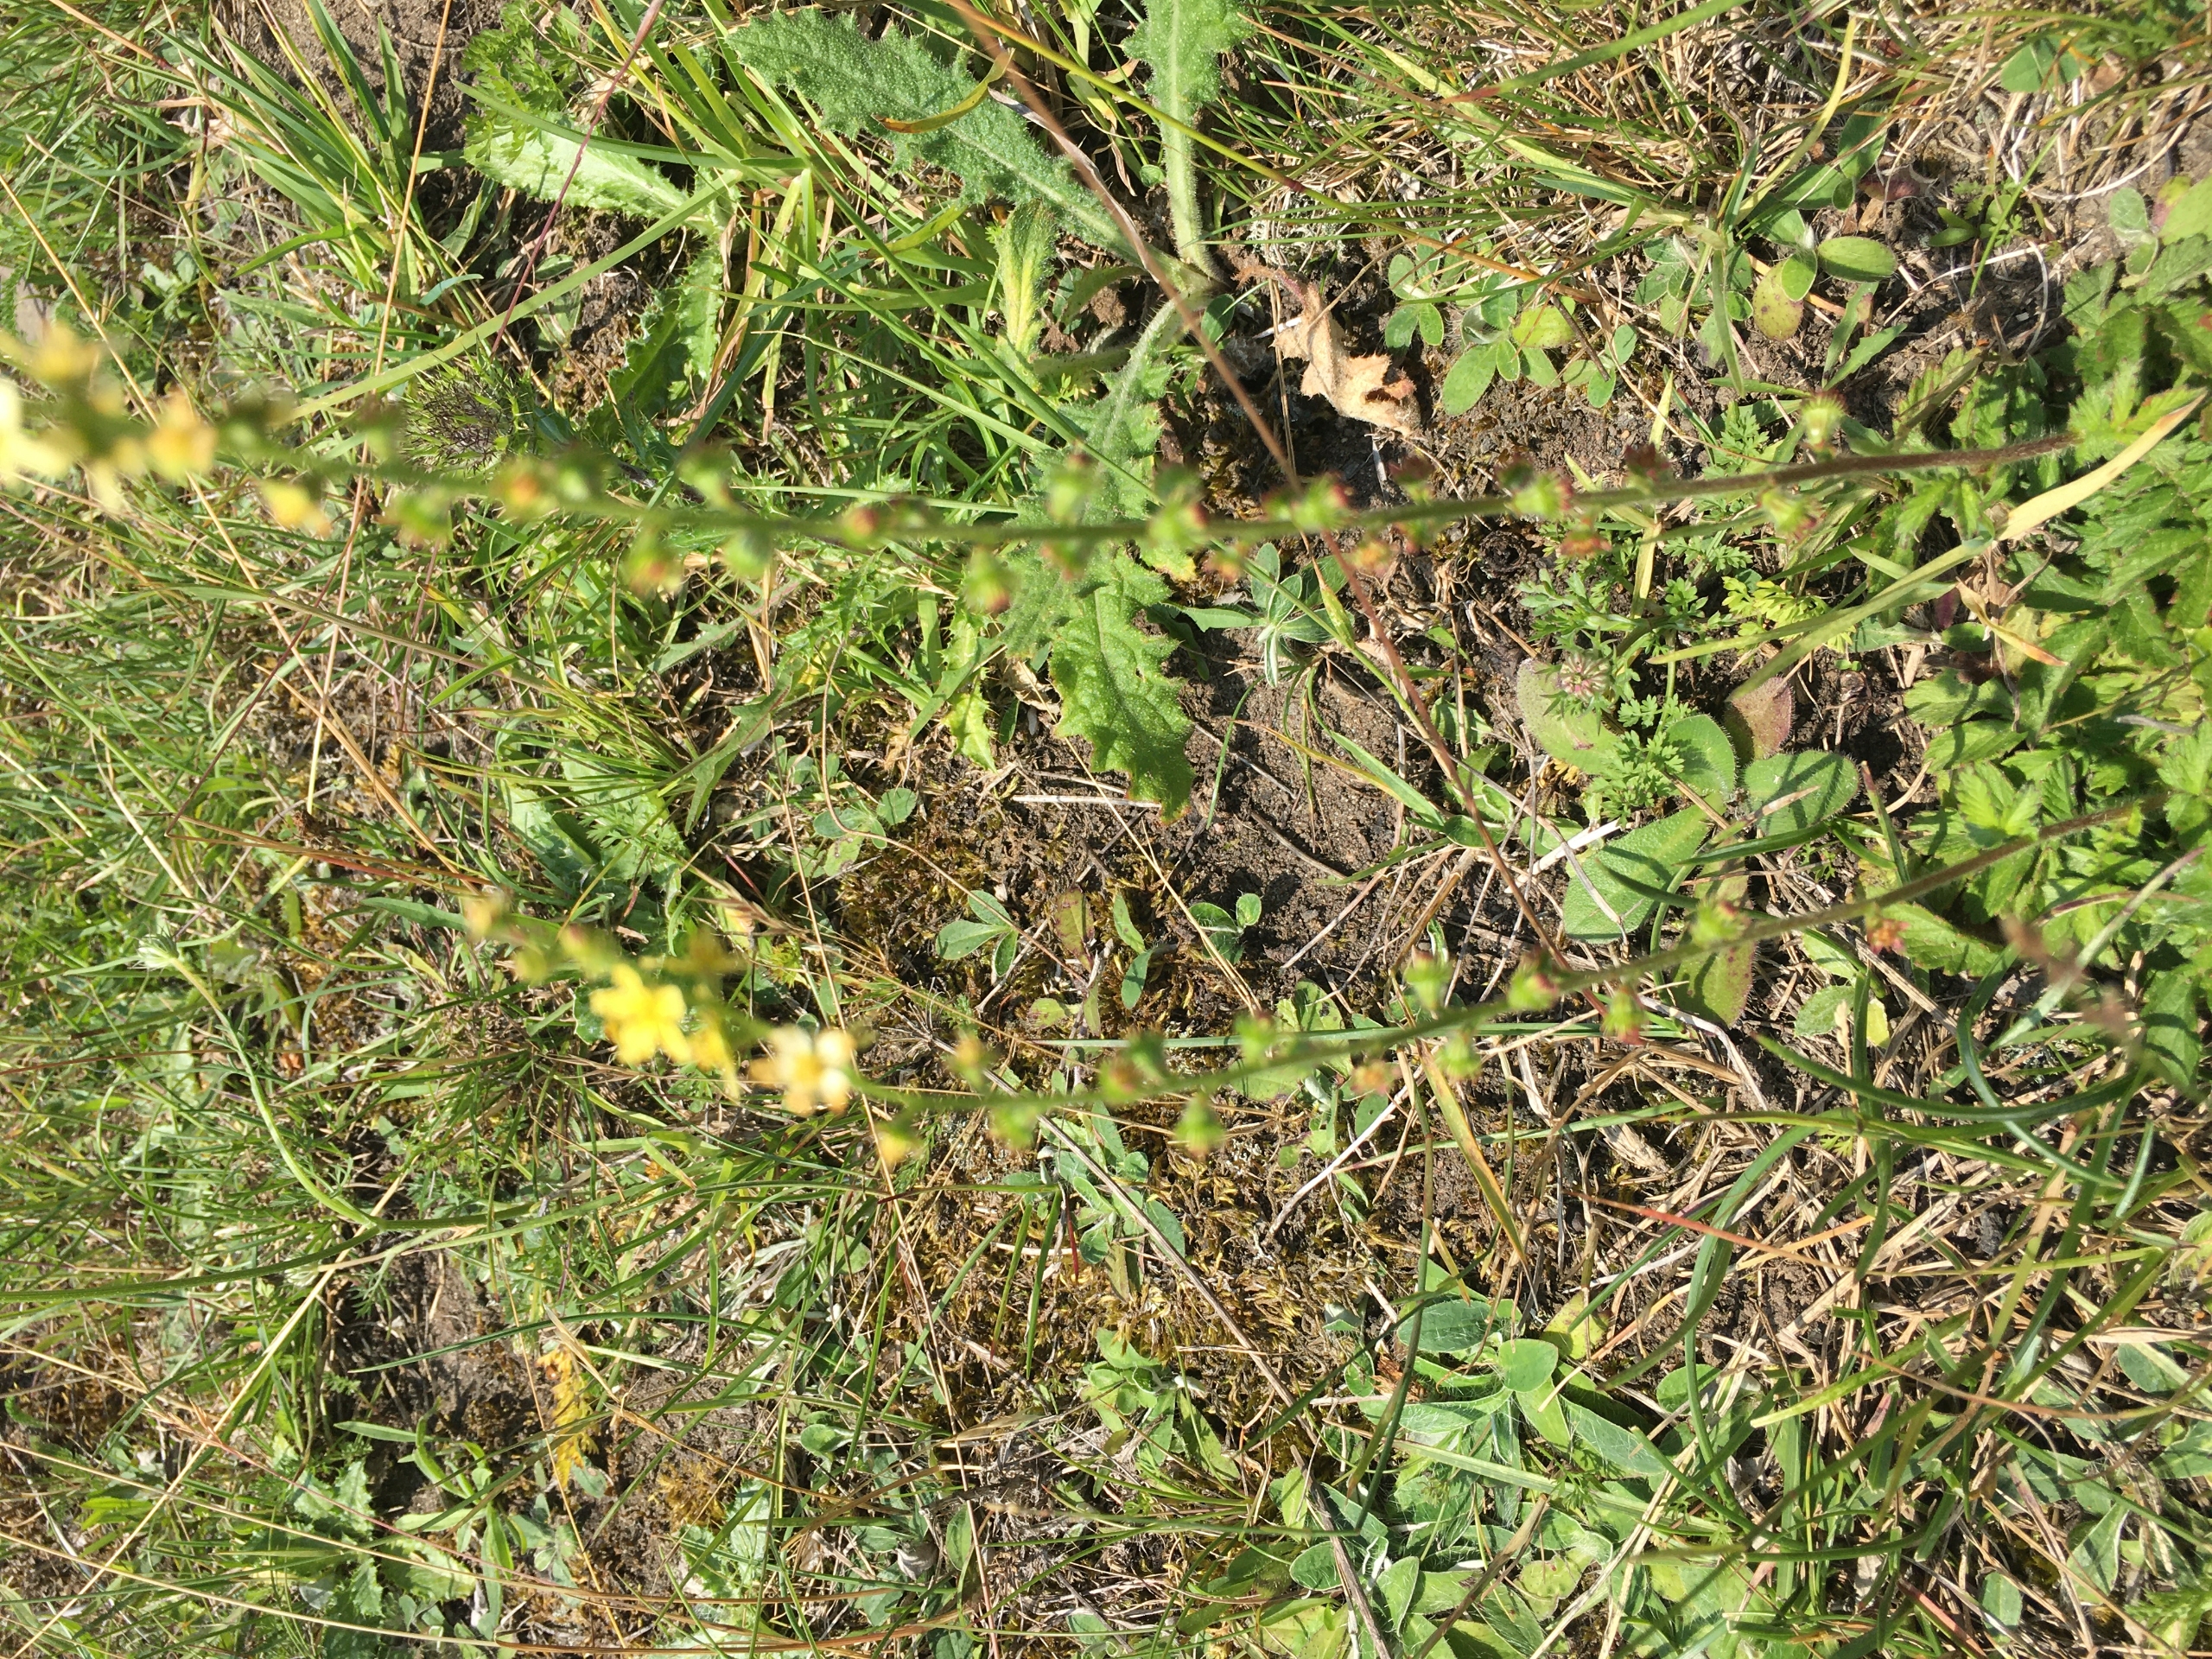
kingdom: Plantae
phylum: Tracheophyta
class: Magnoliopsida
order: Rosales
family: Rosaceae
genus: Agrimonia
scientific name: Agrimonia eupatoria
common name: Almindelig agermåne
